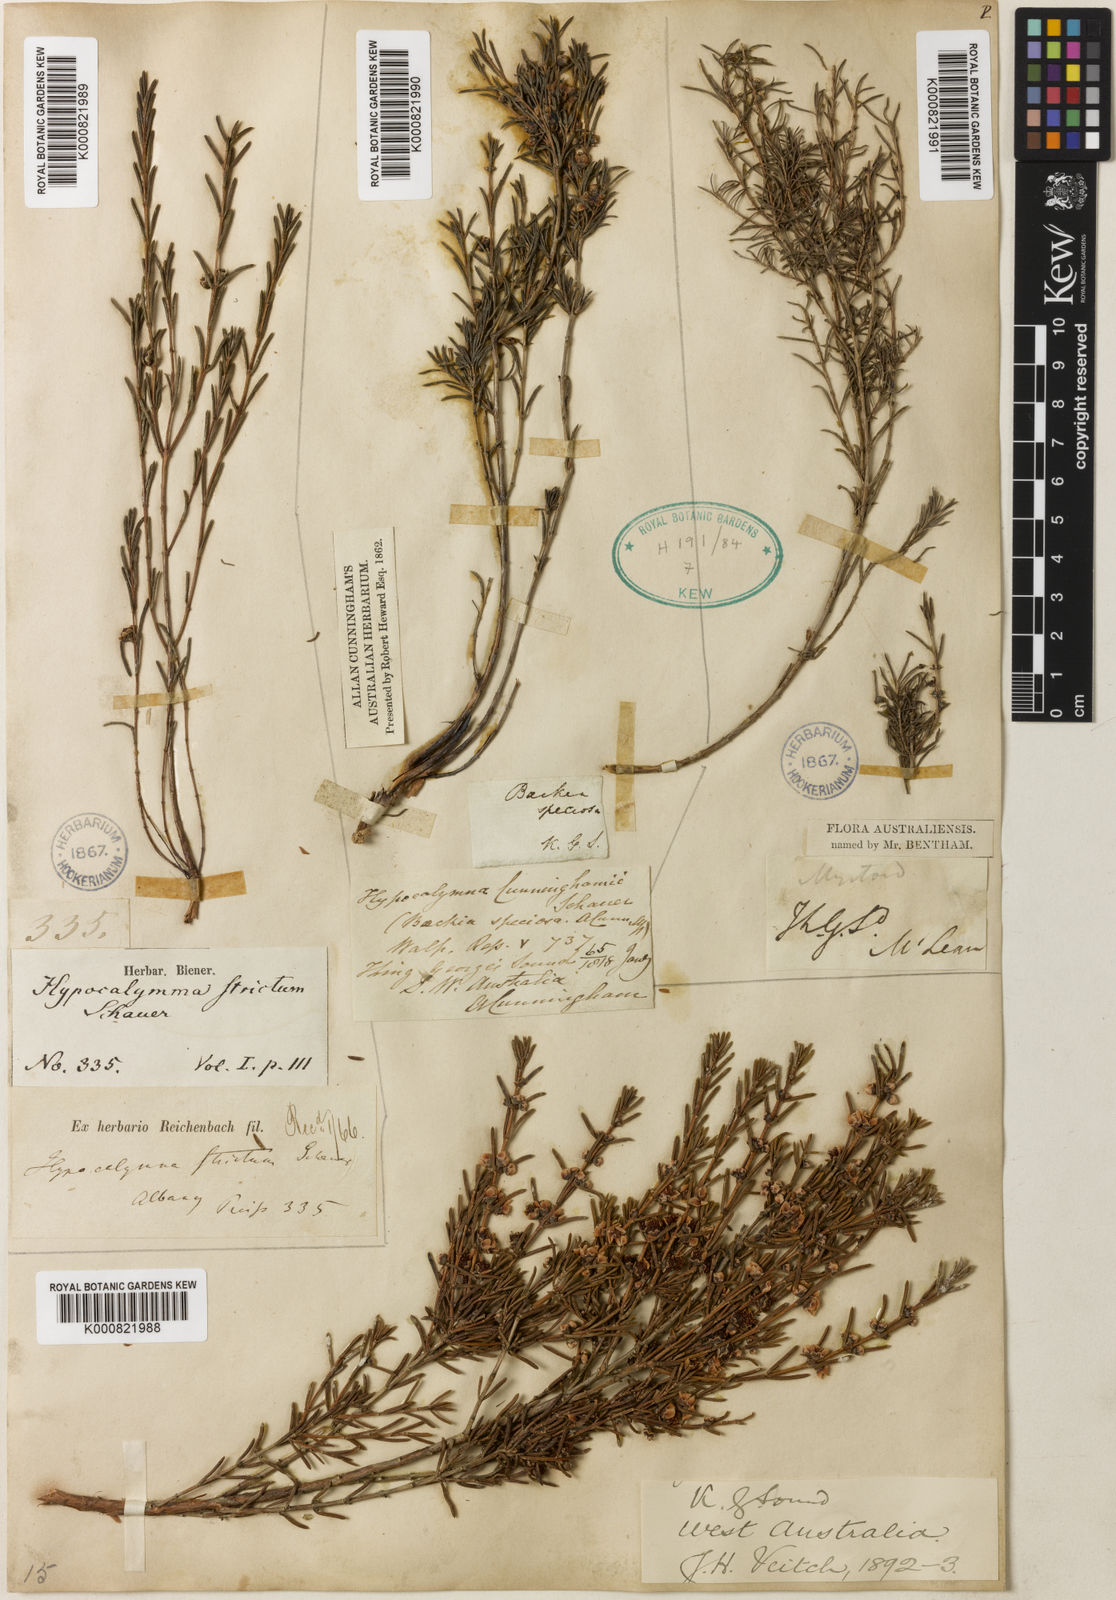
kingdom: Plantae
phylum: Tracheophyta
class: Magnoliopsida
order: Myrtales
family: Myrtaceae
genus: Hypocalymma
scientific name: Hypocalymma strictum
